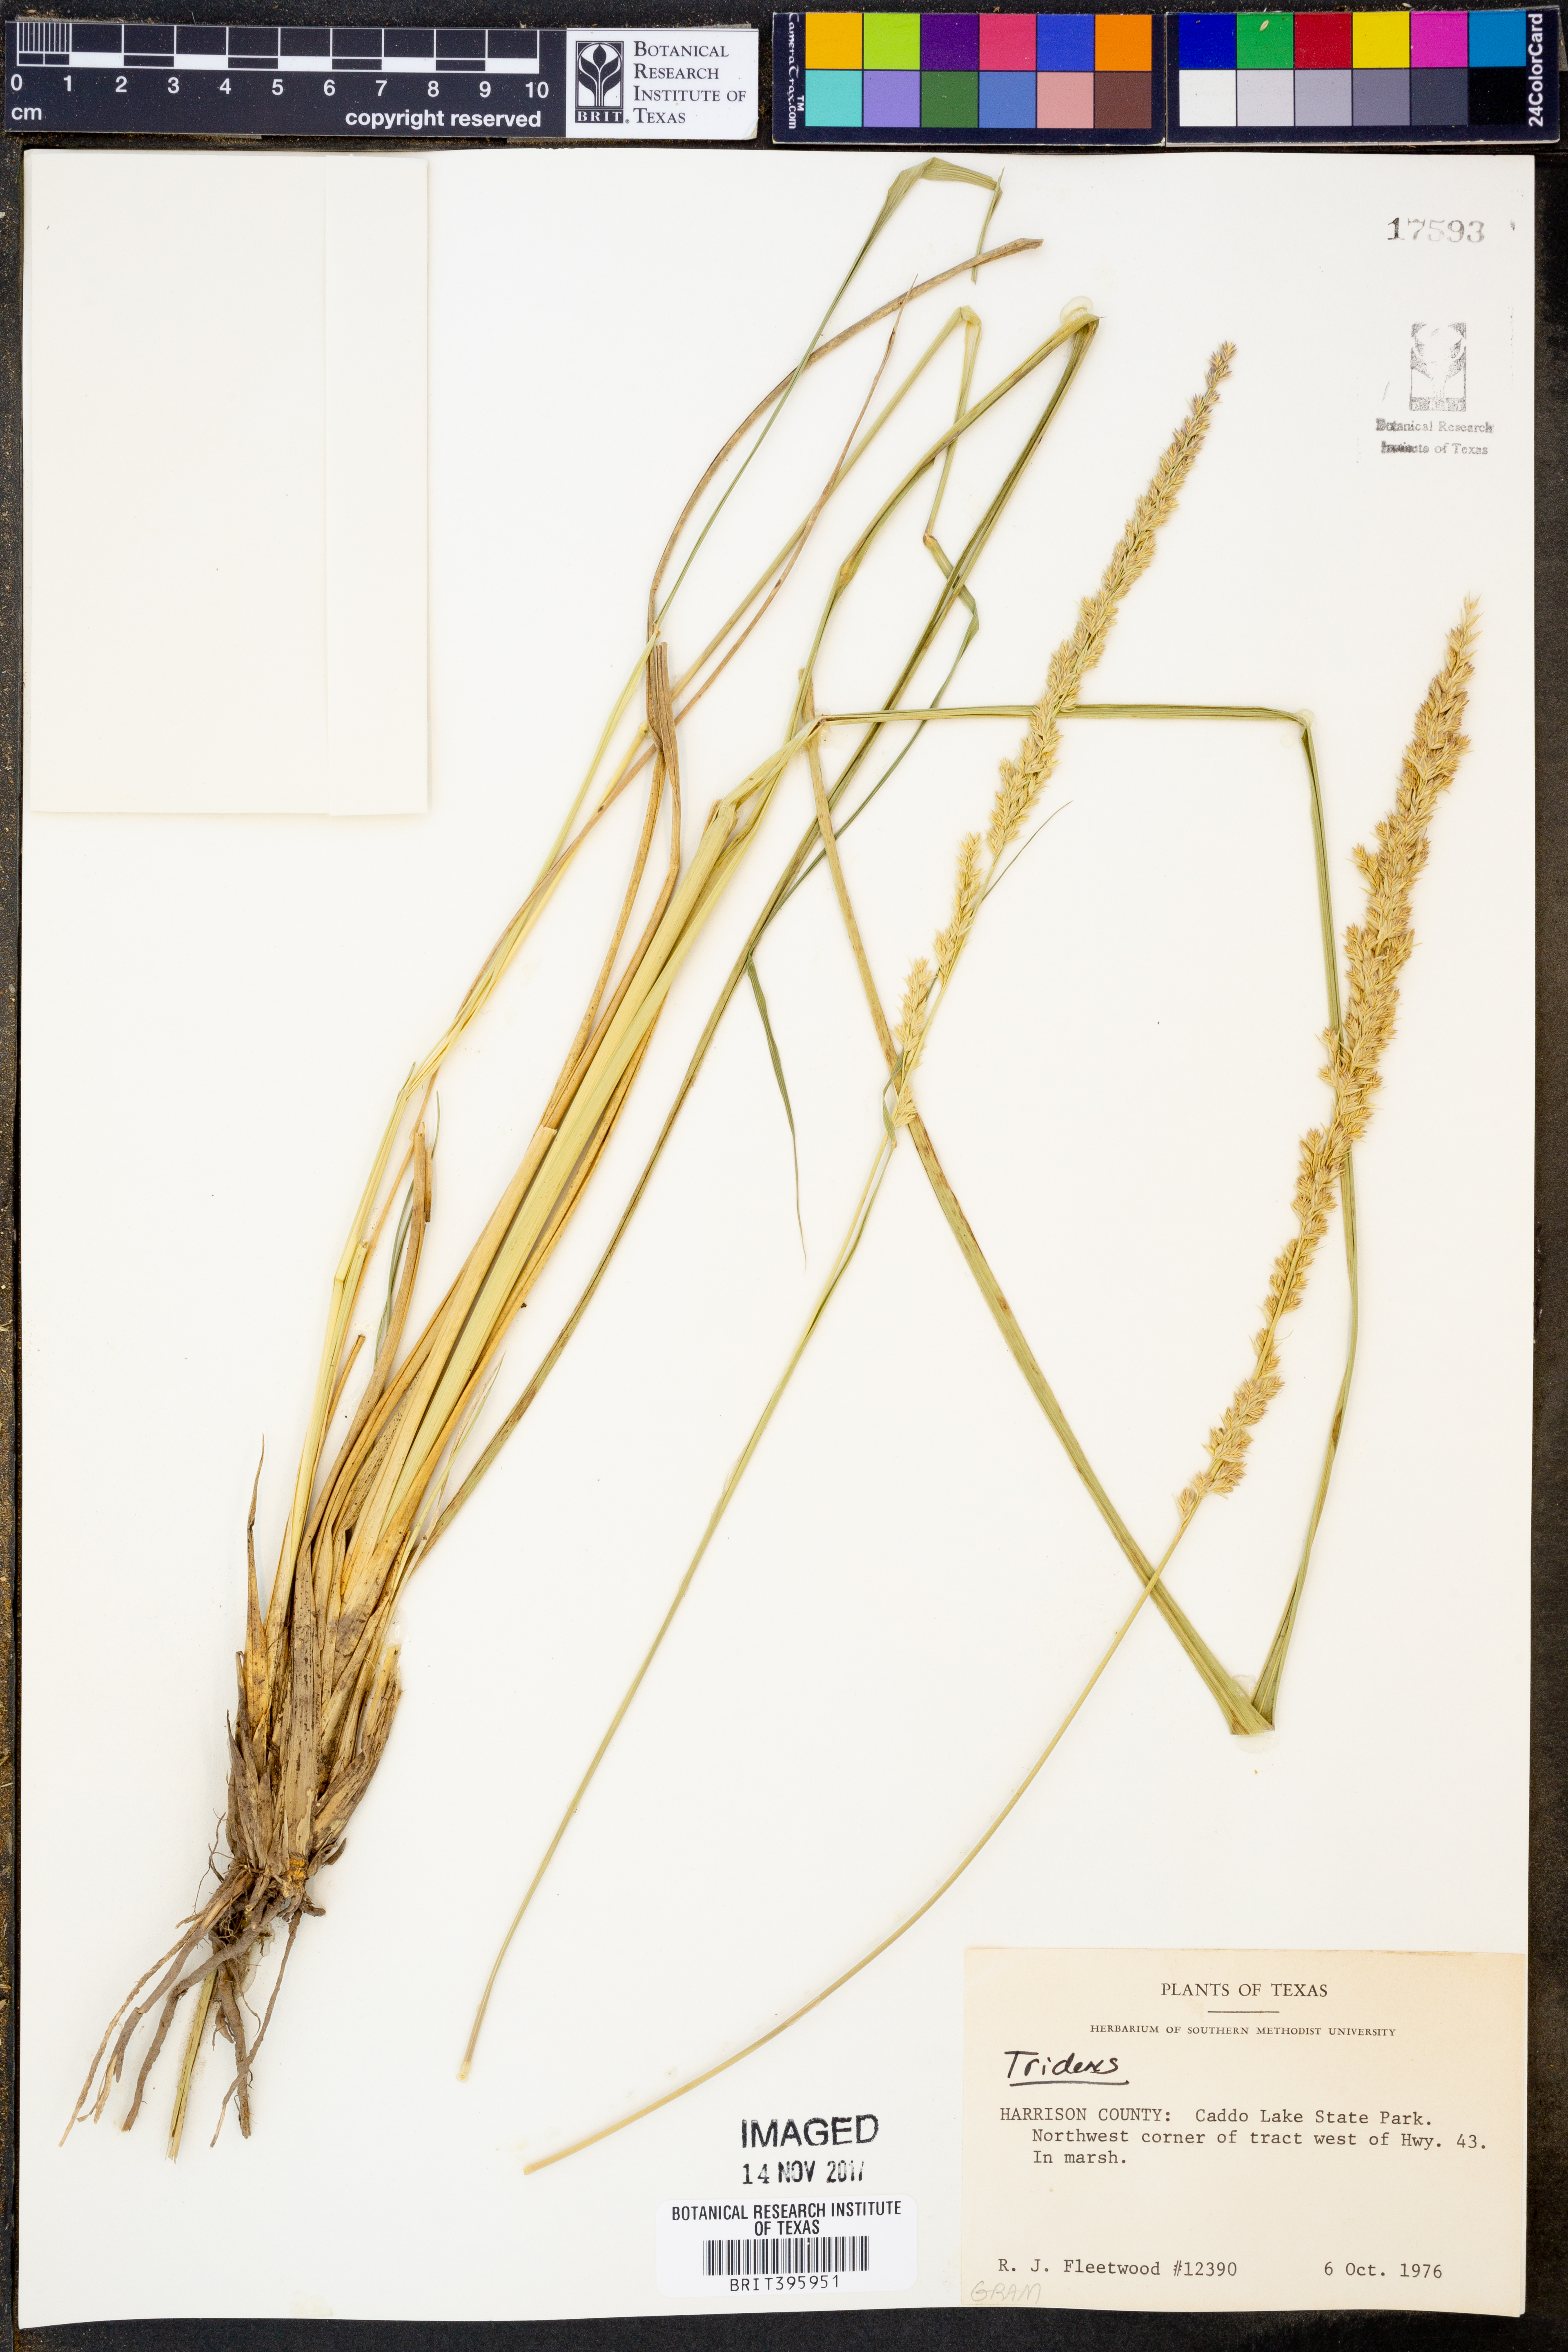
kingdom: Plantae
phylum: Tracheophyta
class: Liliopsida
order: Poales
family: Poaceae
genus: Tridens
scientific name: Tridens
